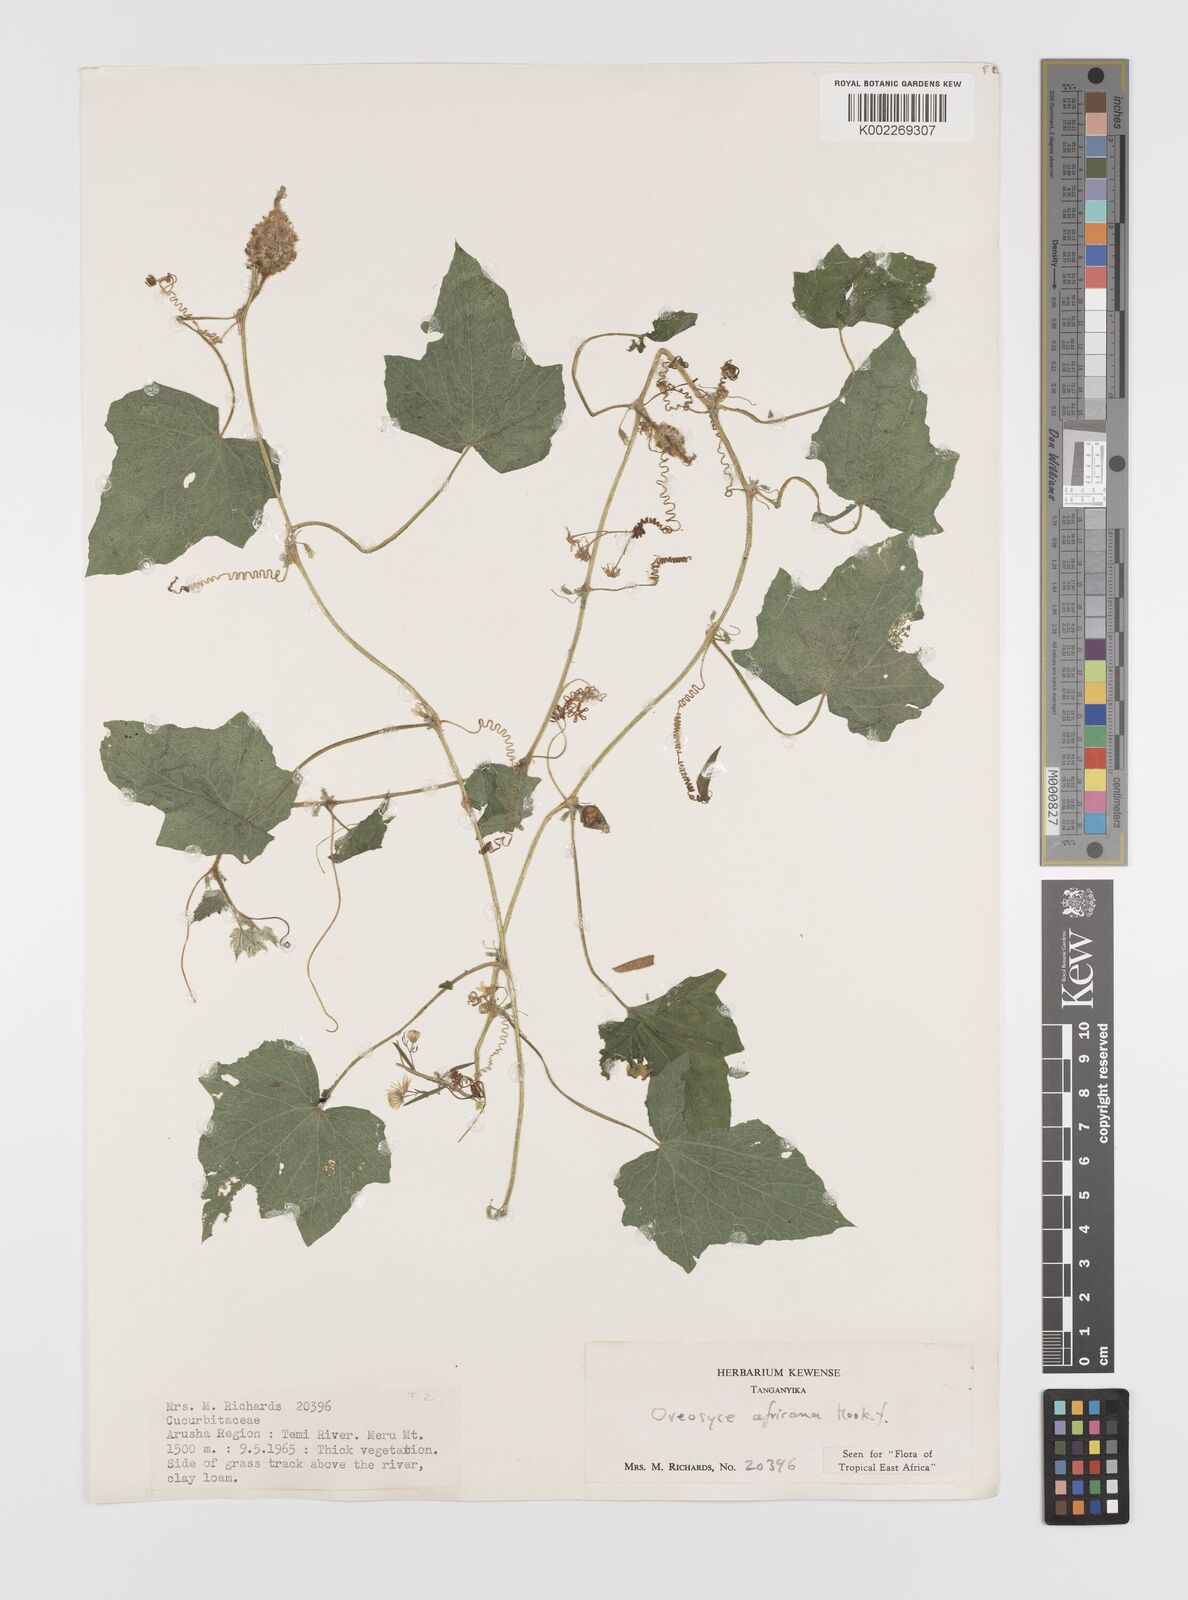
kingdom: Plantae
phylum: Tracheophyta
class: Magnoliopsida
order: Cucurbitales
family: Cucurbitaceae
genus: Cucumis
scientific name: Cucumis oreosyce
